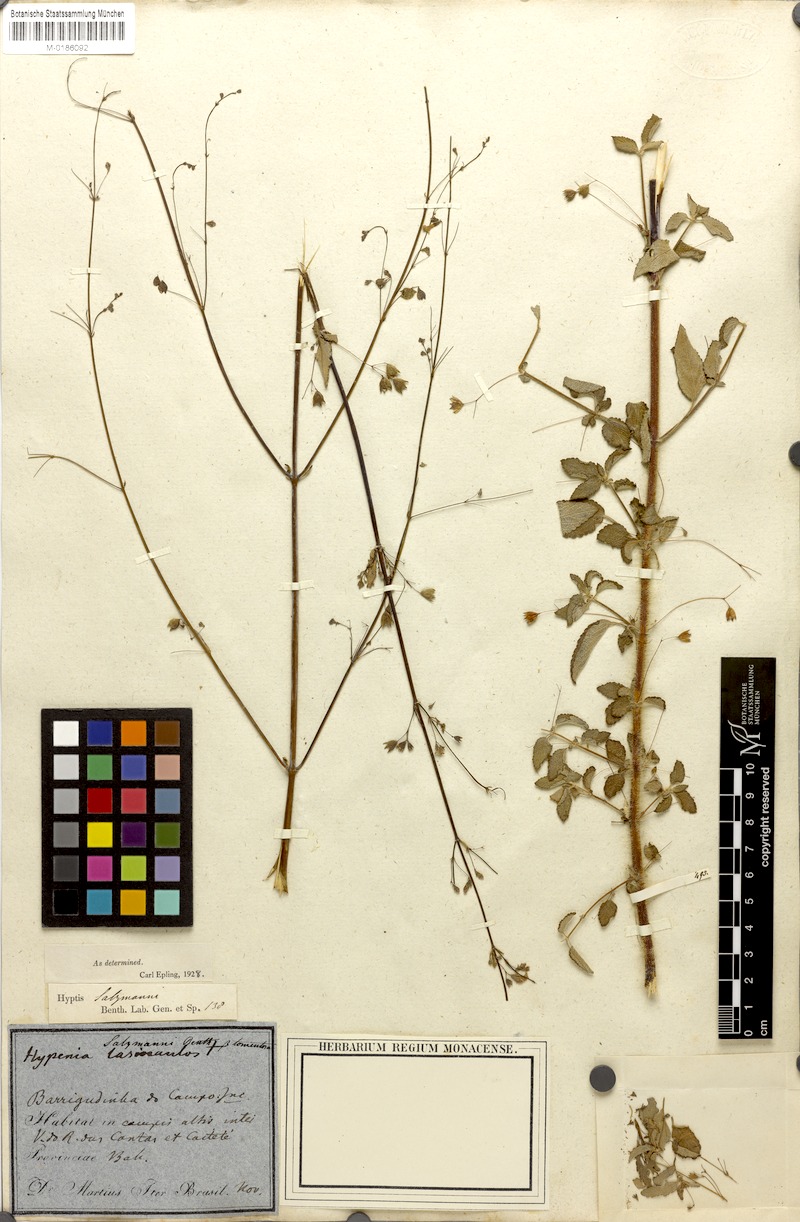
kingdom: Plantae
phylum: Tracheophyta
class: Magnoliopsida
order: Lamiales
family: Lamiaceae
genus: Hypenia
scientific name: Hypenia salzmannii
